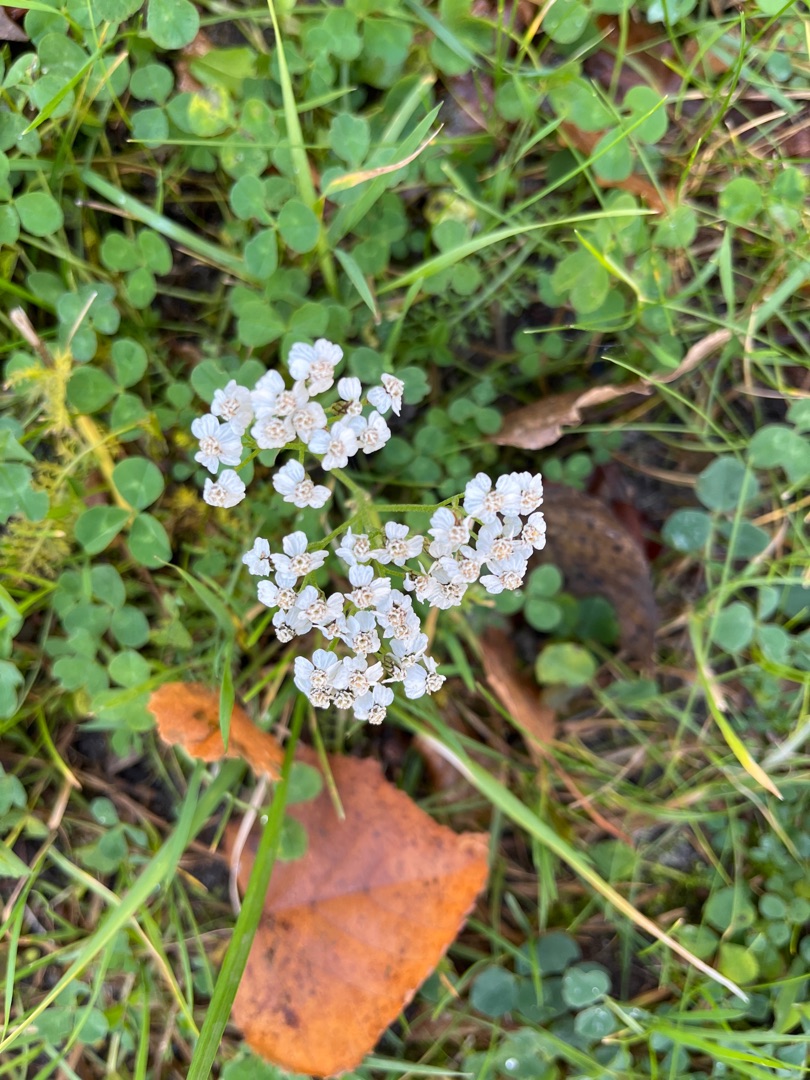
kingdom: Plantae
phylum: Tracheophyta
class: Magnoliopsida
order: Asterales
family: Asteraceae
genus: Achillea
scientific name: Achillea millefolium
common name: Almindelig røllike
